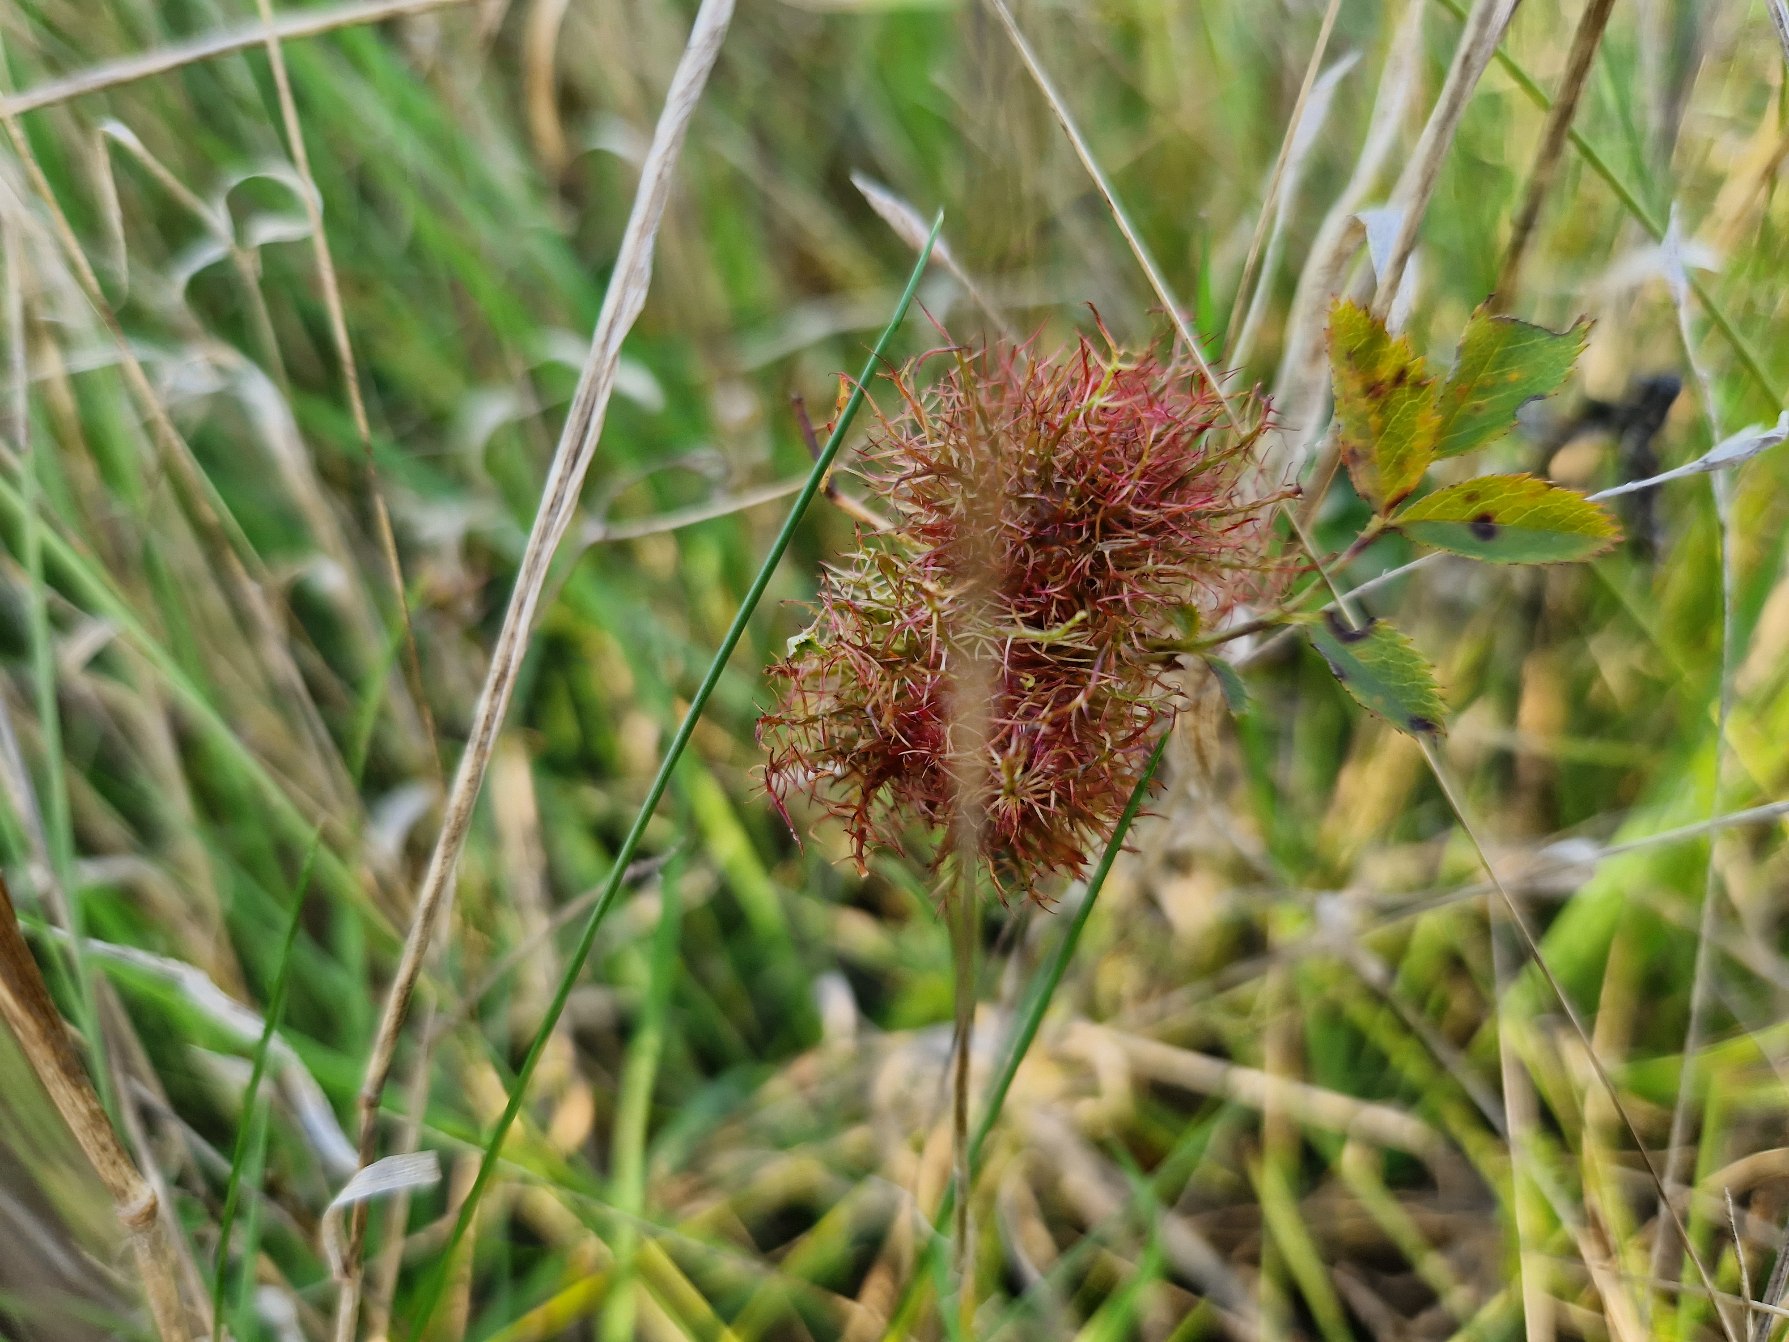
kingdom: Animalia
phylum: Arthropoda
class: Insecta
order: Hymenoptera
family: Cynipidae
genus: Diplolepis
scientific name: Diplolepis rosae
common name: Bedeguargalhveps
